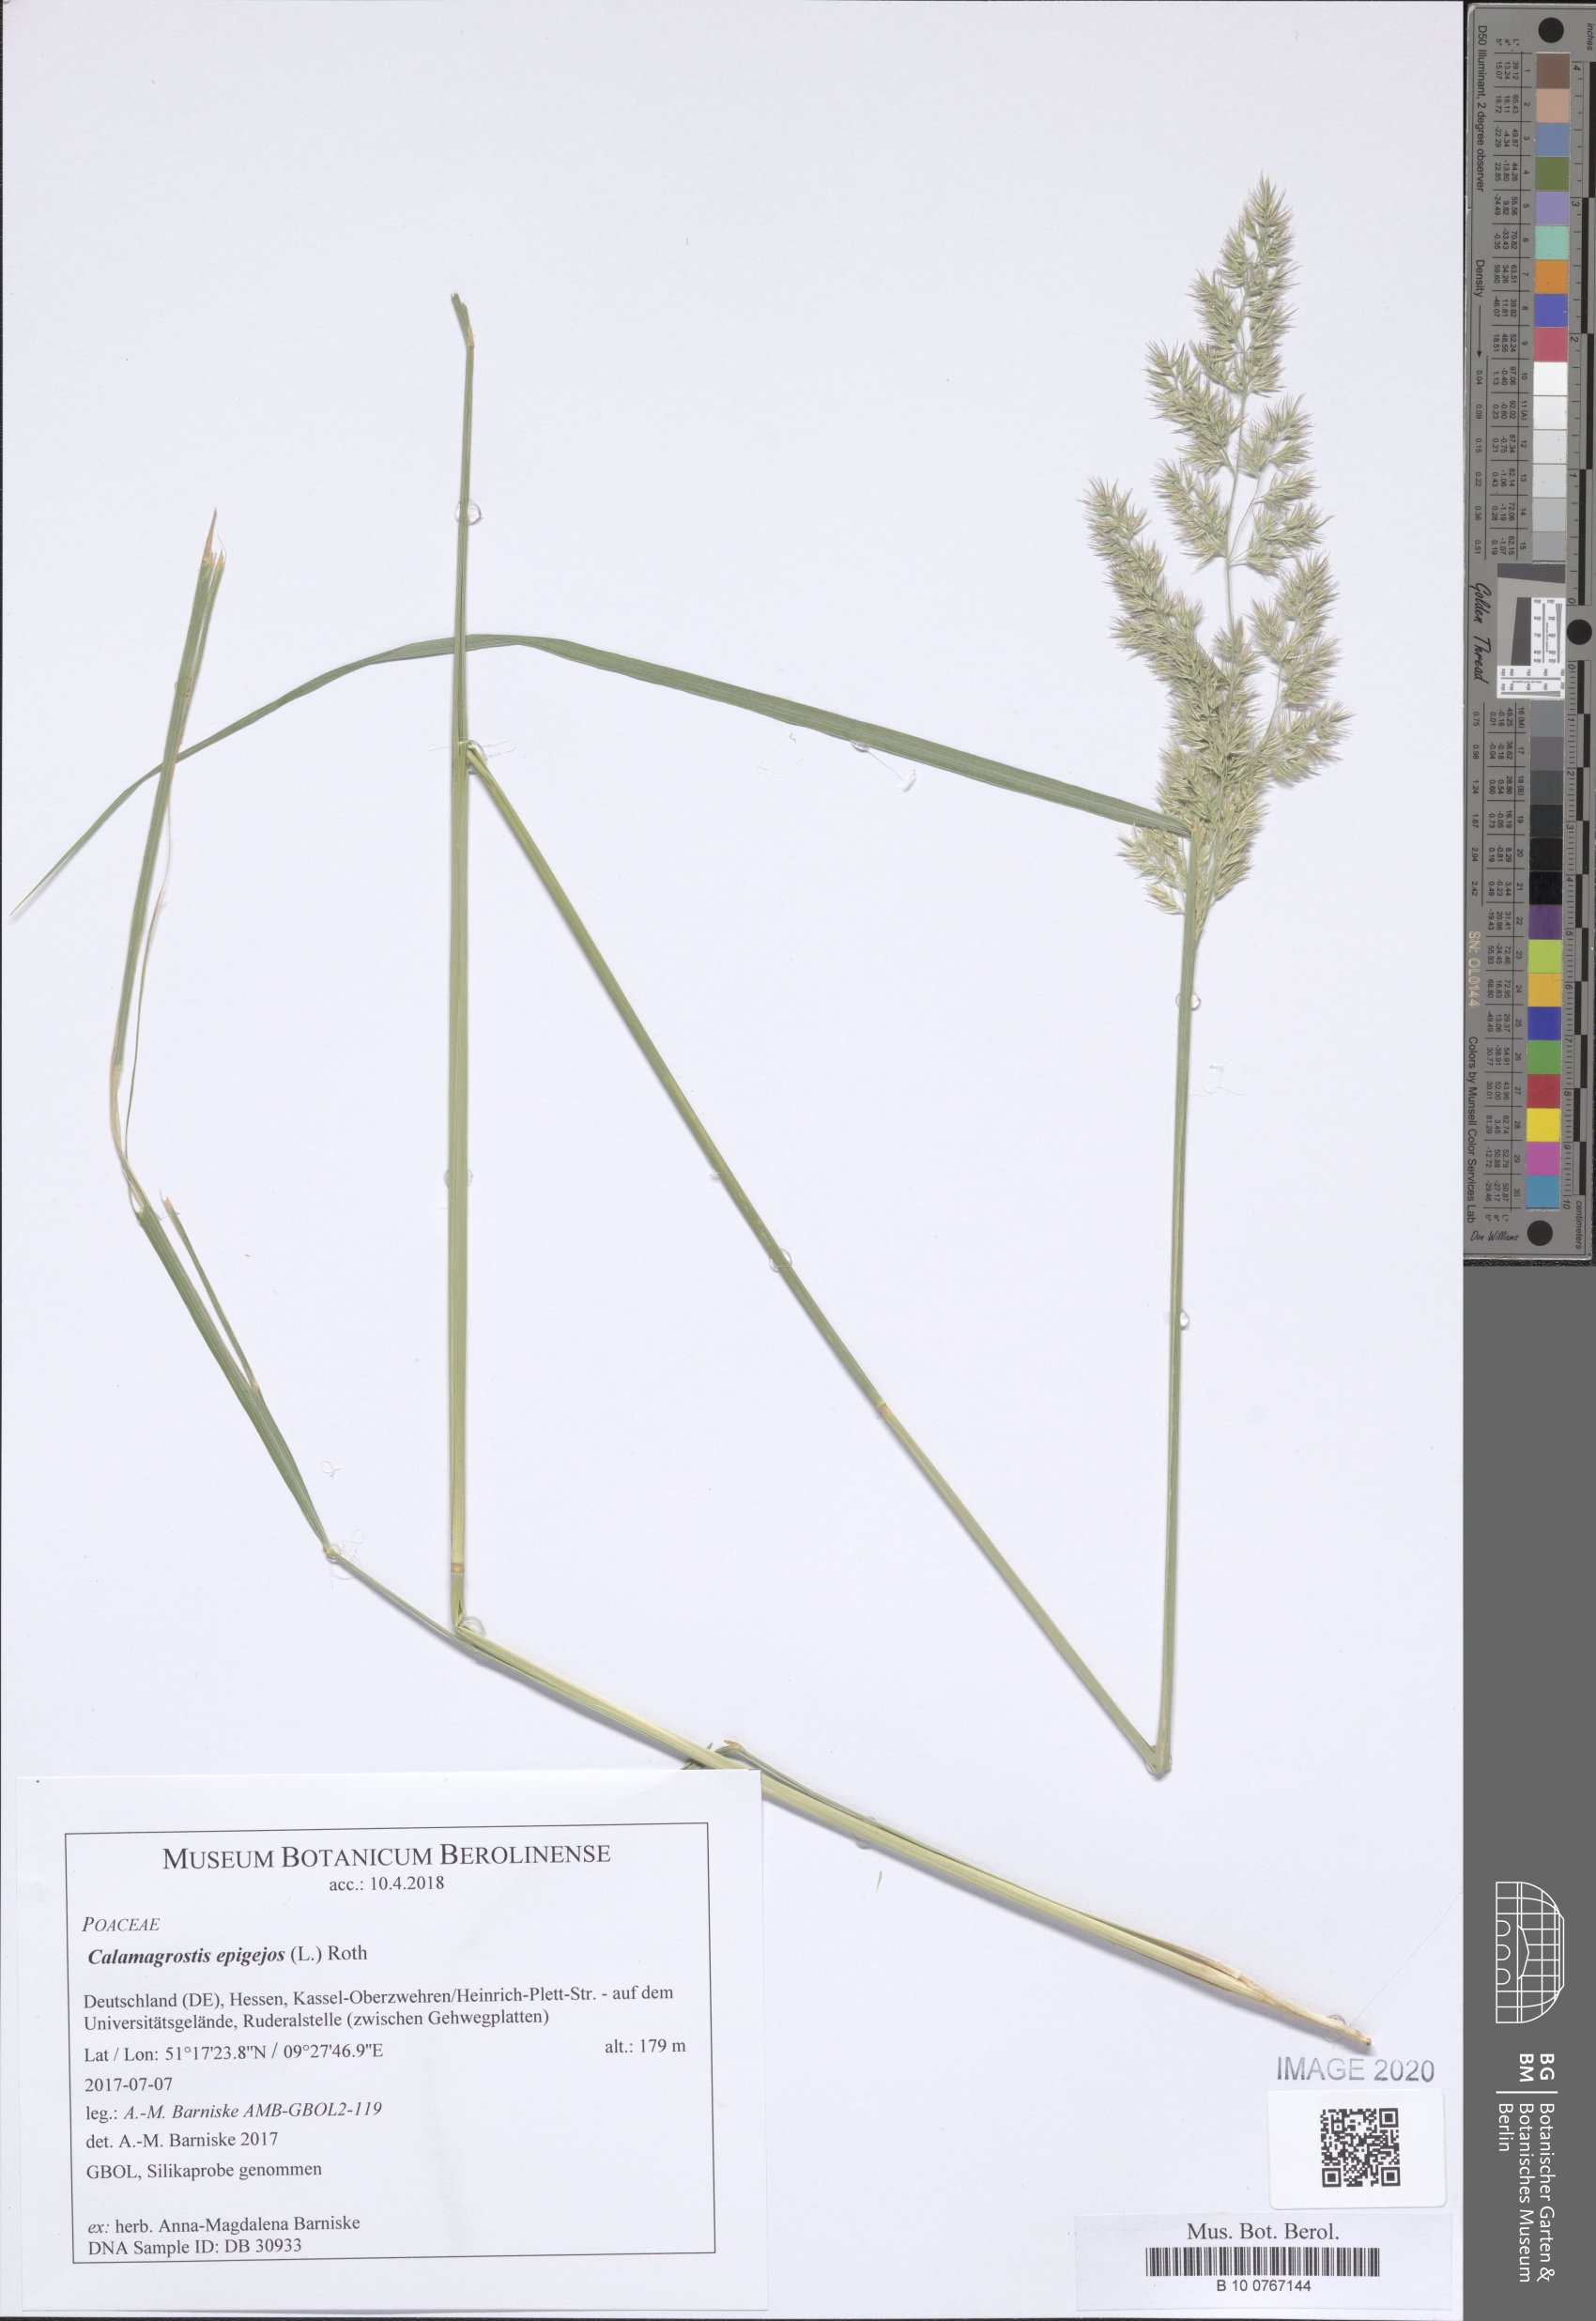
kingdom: Plantae
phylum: Tracheophyta
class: Liliopsida
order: Poales
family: Poaceae
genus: Calamagrostis
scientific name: Calamagrostis epigejos
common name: Wood small-reed
